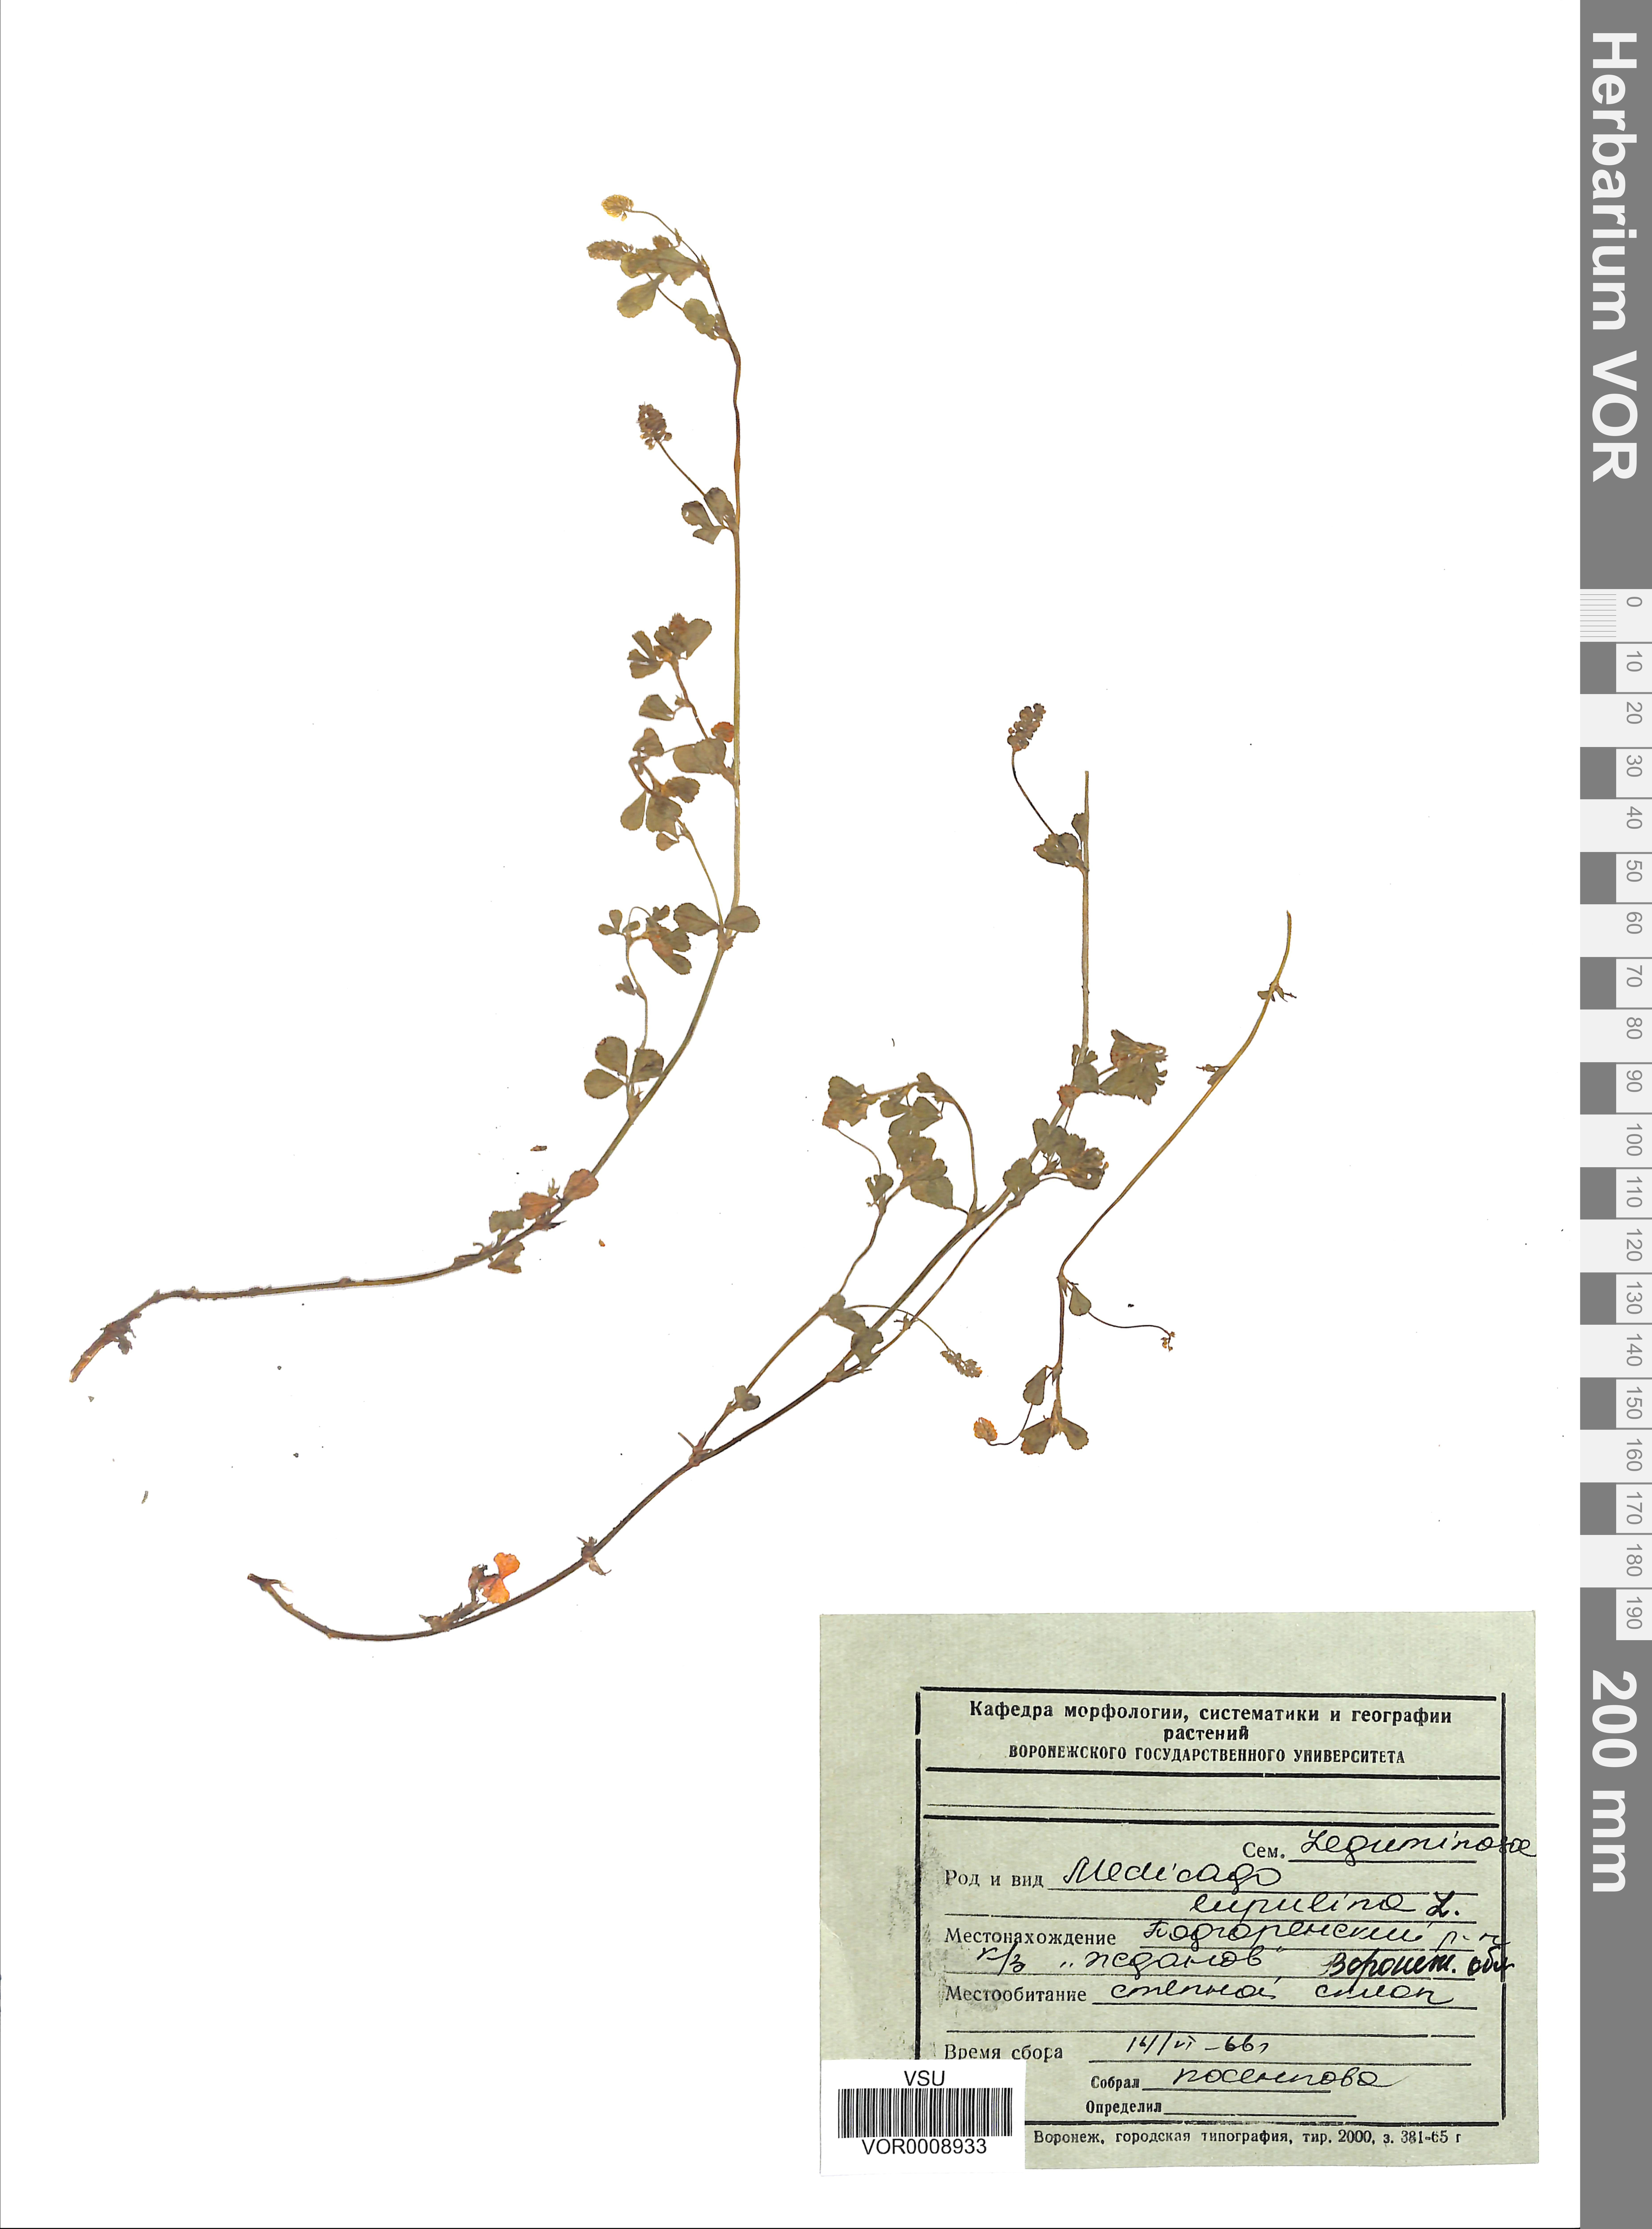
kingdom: Plantae
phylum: Tracheophyta
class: Magnoliopsida
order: Fabales
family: Fabaceae
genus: Medicago
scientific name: Medicago lupulina
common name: Black medick
